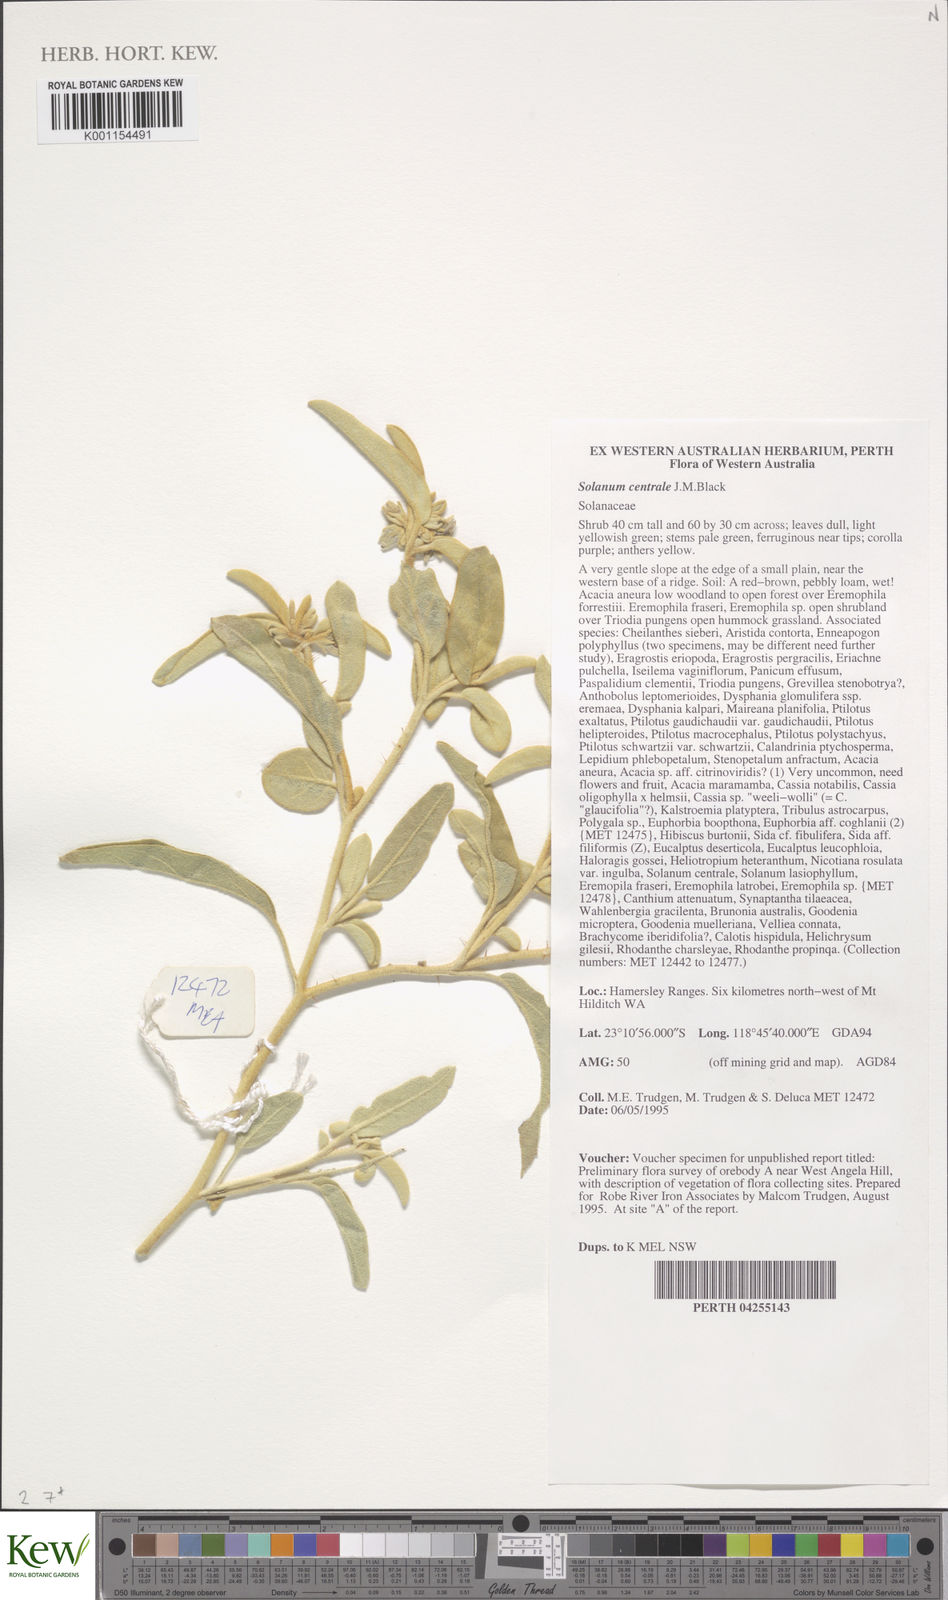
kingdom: Plantae
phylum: Tracheophyta
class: Magnoliopsida
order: Solanales
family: Solanaceae
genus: Solanum
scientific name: Solanum centrale
